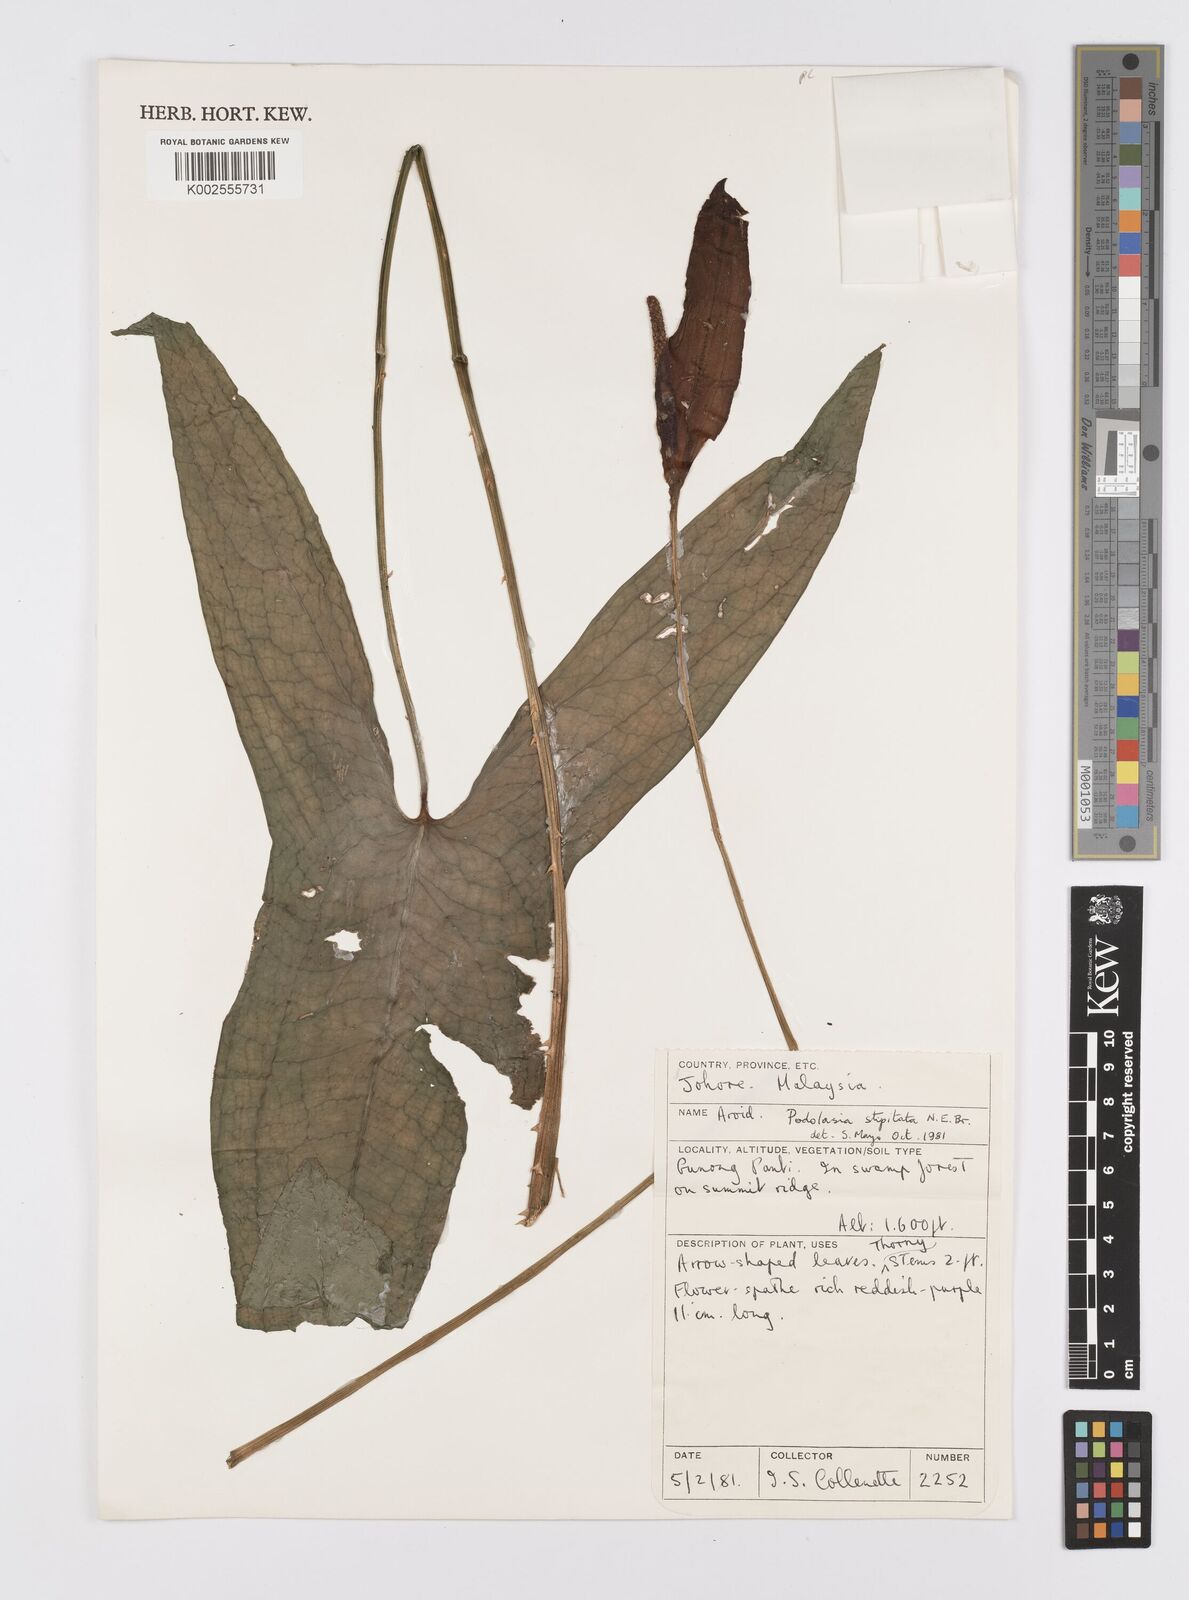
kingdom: Plantae
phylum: Tracheophyta
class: Liliopsida
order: Alismatales
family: Araceae
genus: Podolasia
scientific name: Podolasia stipitata
